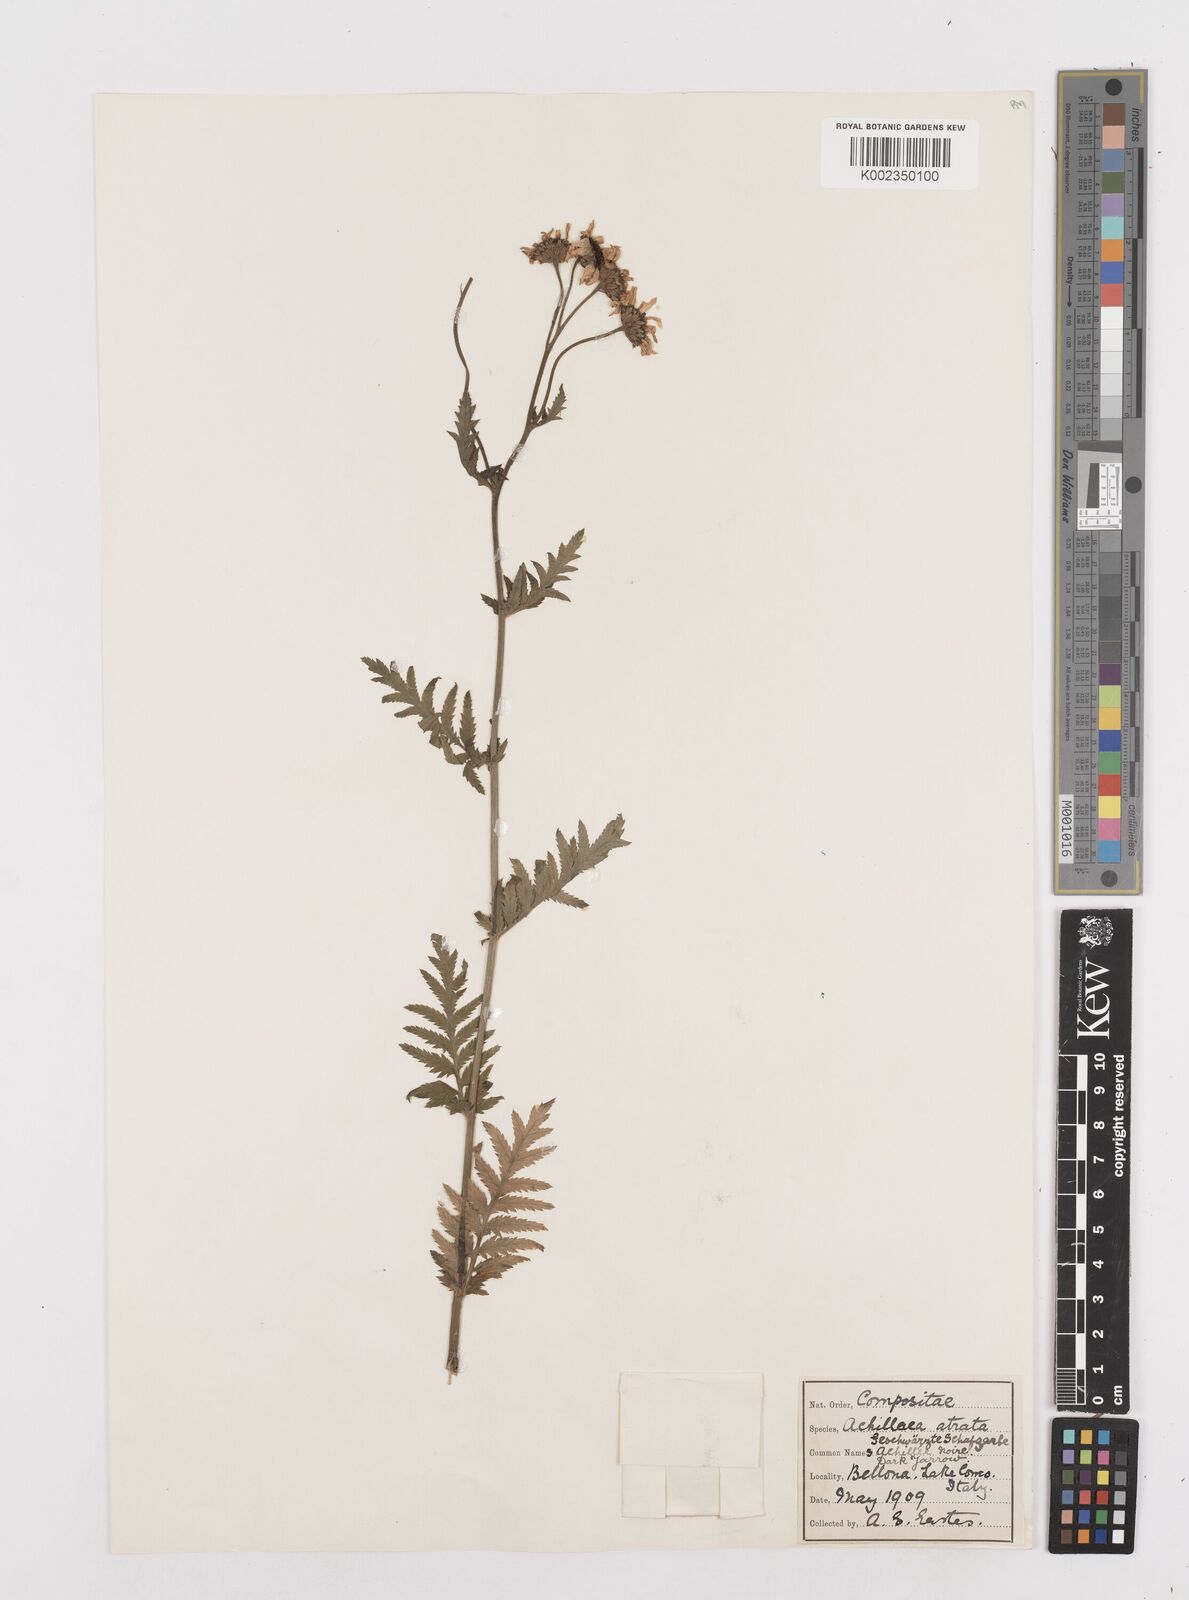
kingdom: Plantae
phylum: Tracheophyta
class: Magnoliopsida
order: Asterales
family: Asteraceae
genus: Achillea
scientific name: Achillea atrata
